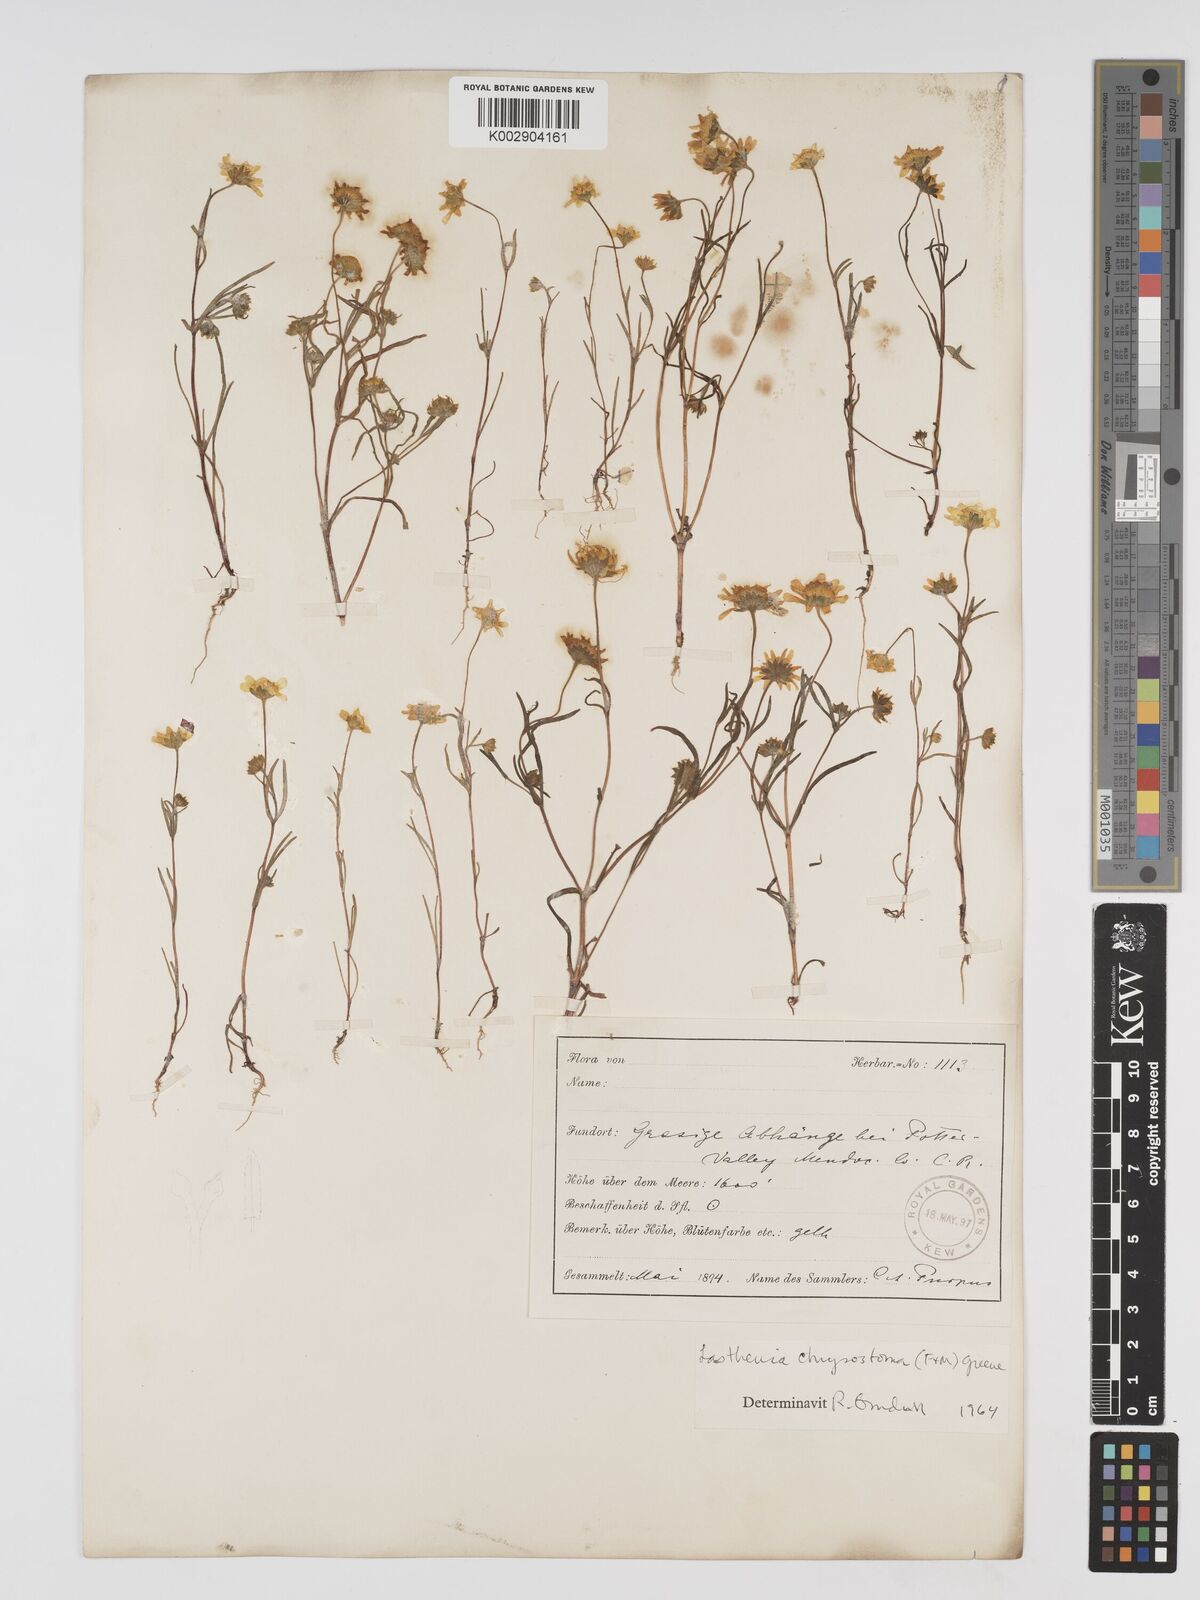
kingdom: Plantae
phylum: Tracheophyta
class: Magnoliopsida
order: Asterales
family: Asteraceae
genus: Lasthenia
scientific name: Lasthenia californica
